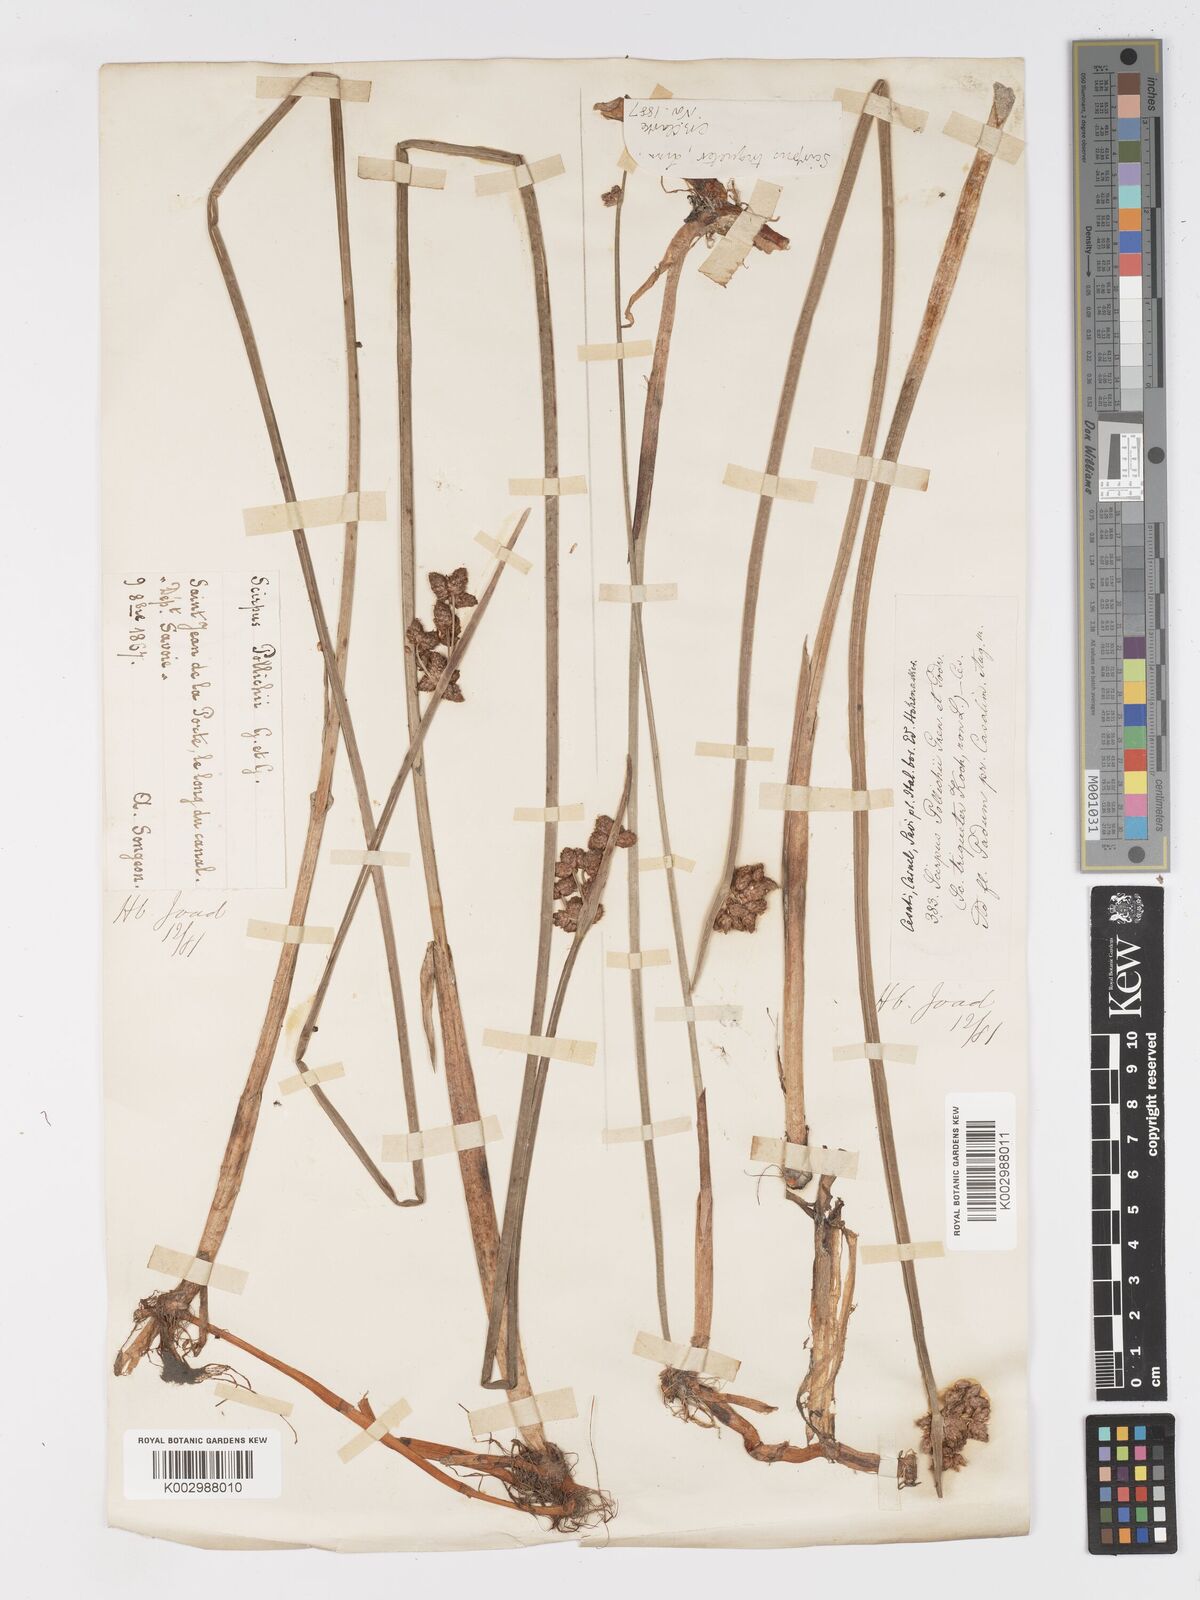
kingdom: Plantae
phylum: Tracheophyta
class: Liliopsida
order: Poales
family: Cyperaceae
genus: Schoenoplectus
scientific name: Schoenoplectus triqueter
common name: Triangular club-rush
